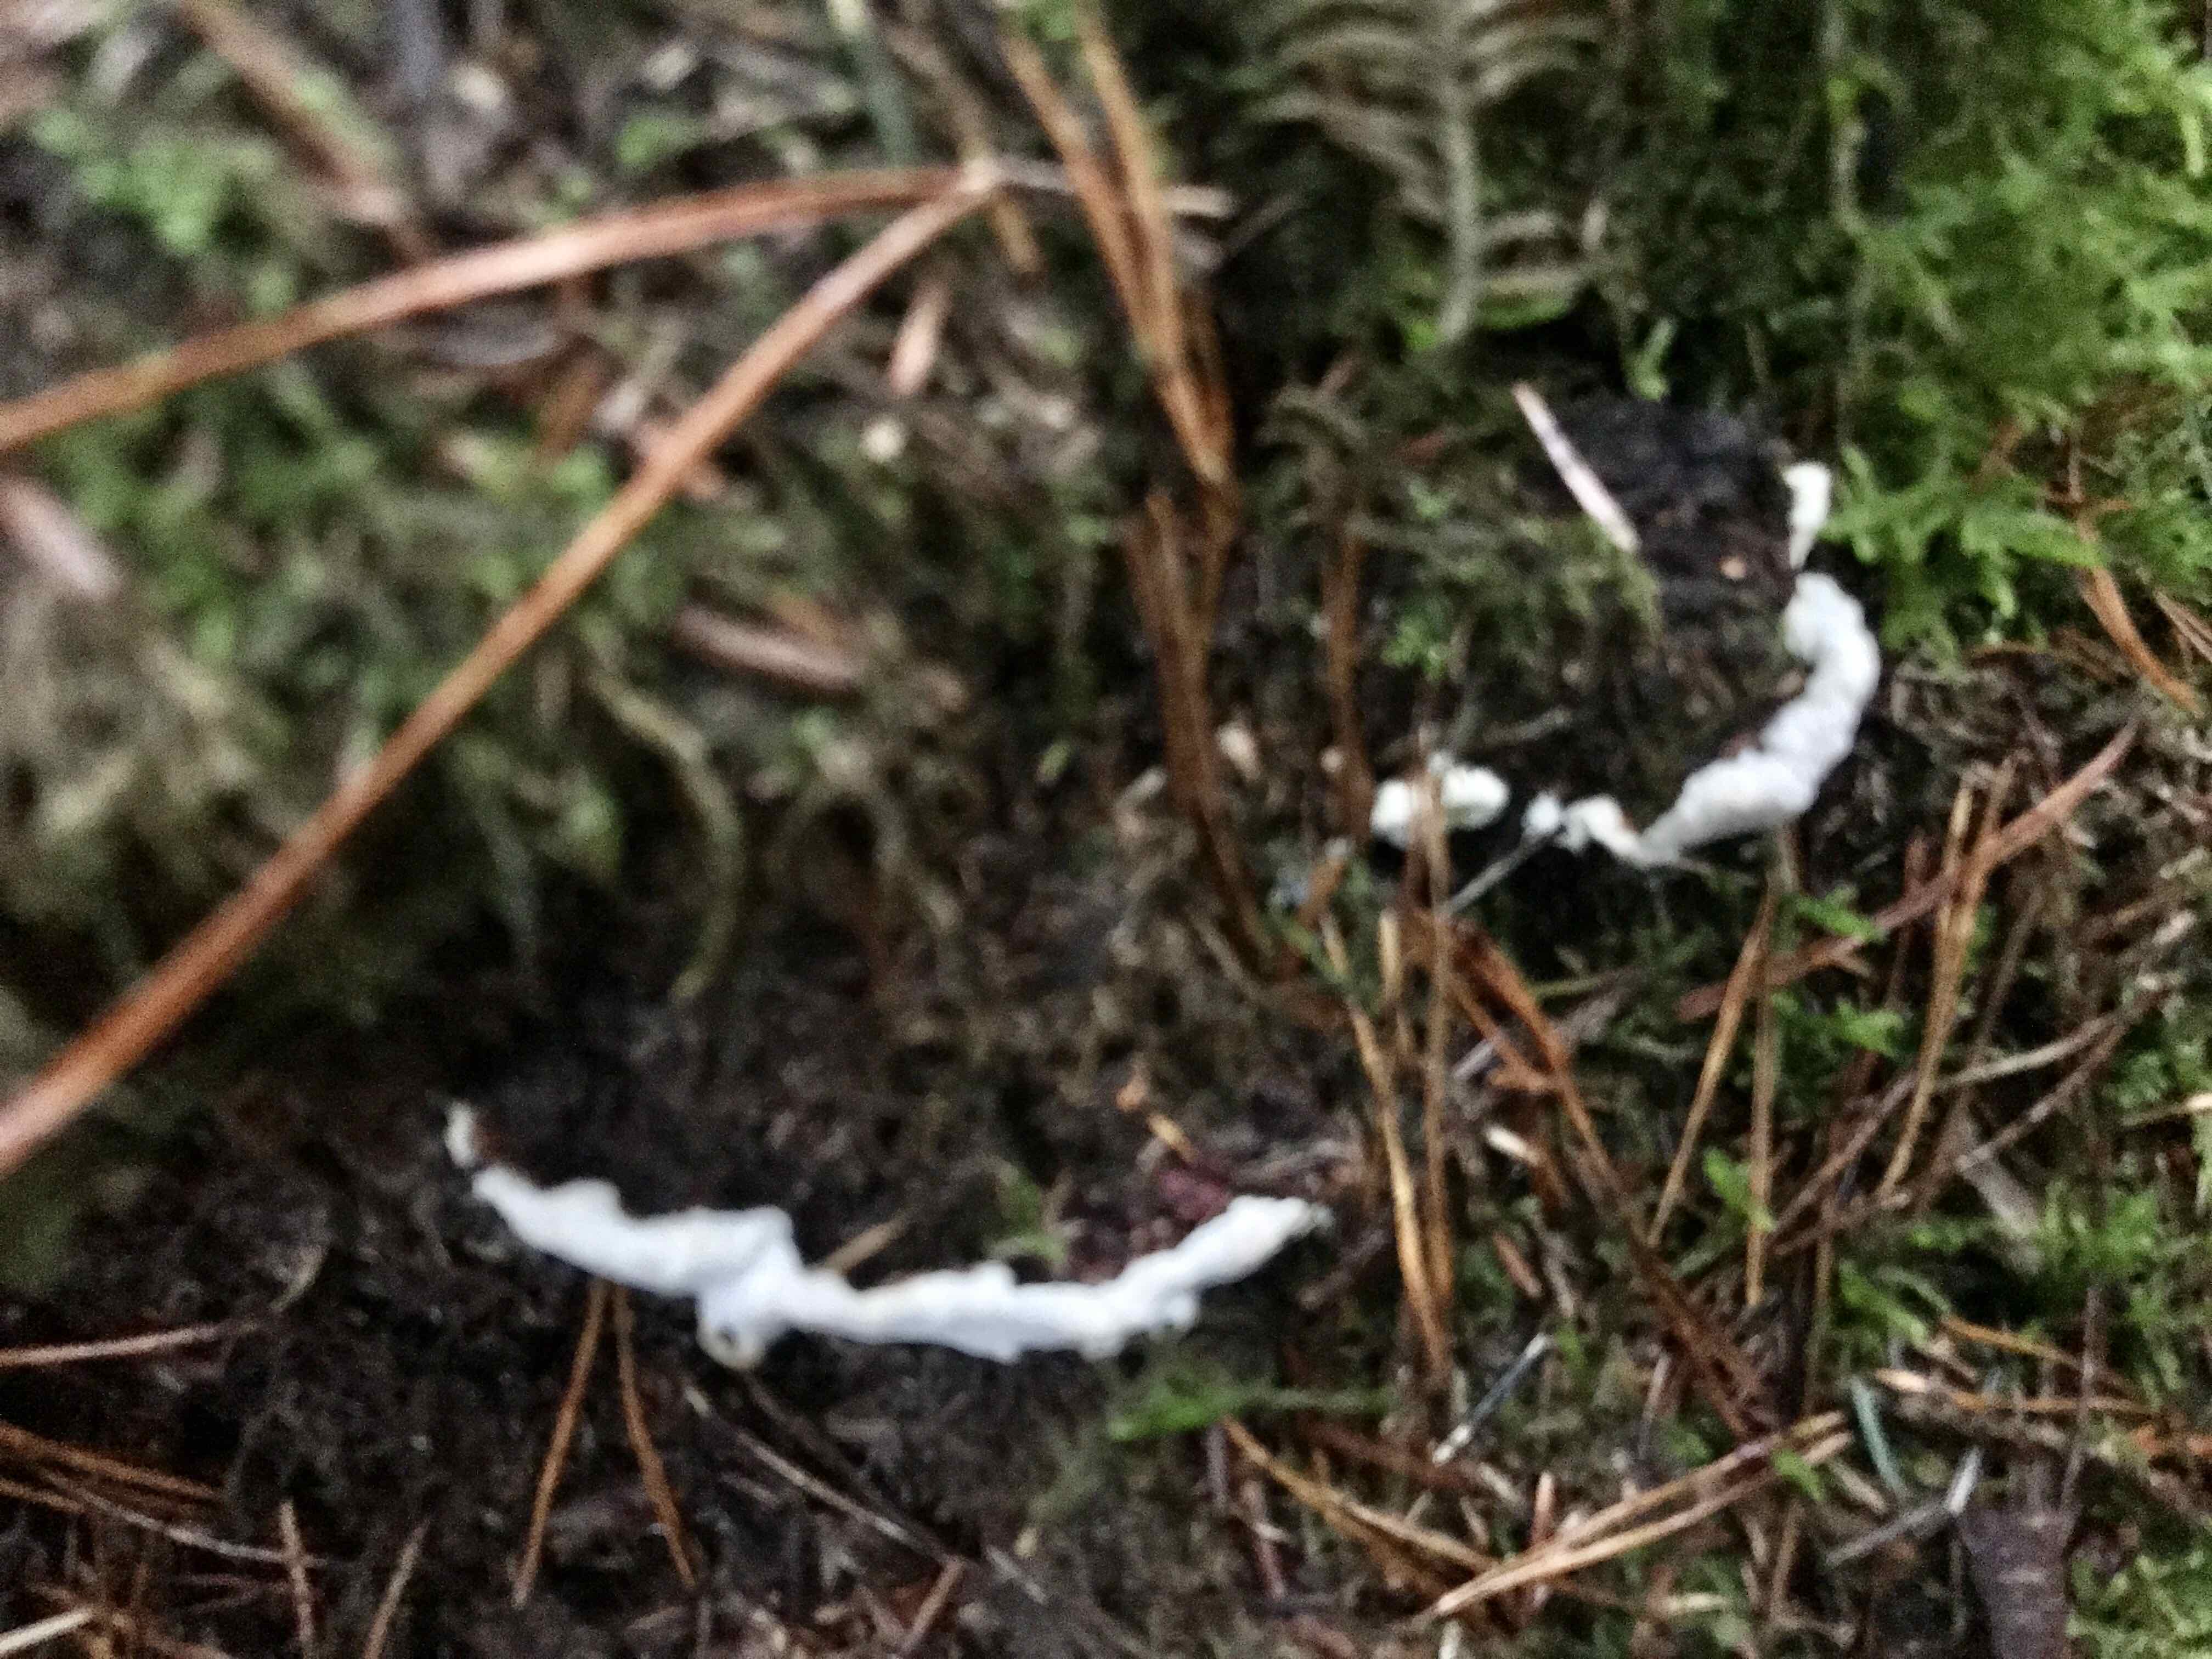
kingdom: Fungi
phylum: Basidiomycota
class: Agaricomycetes
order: Russulales
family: Bondarzewiaceae
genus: Heterobasidion
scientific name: Heterobasidion annosum
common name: almindelig rodfordærver
